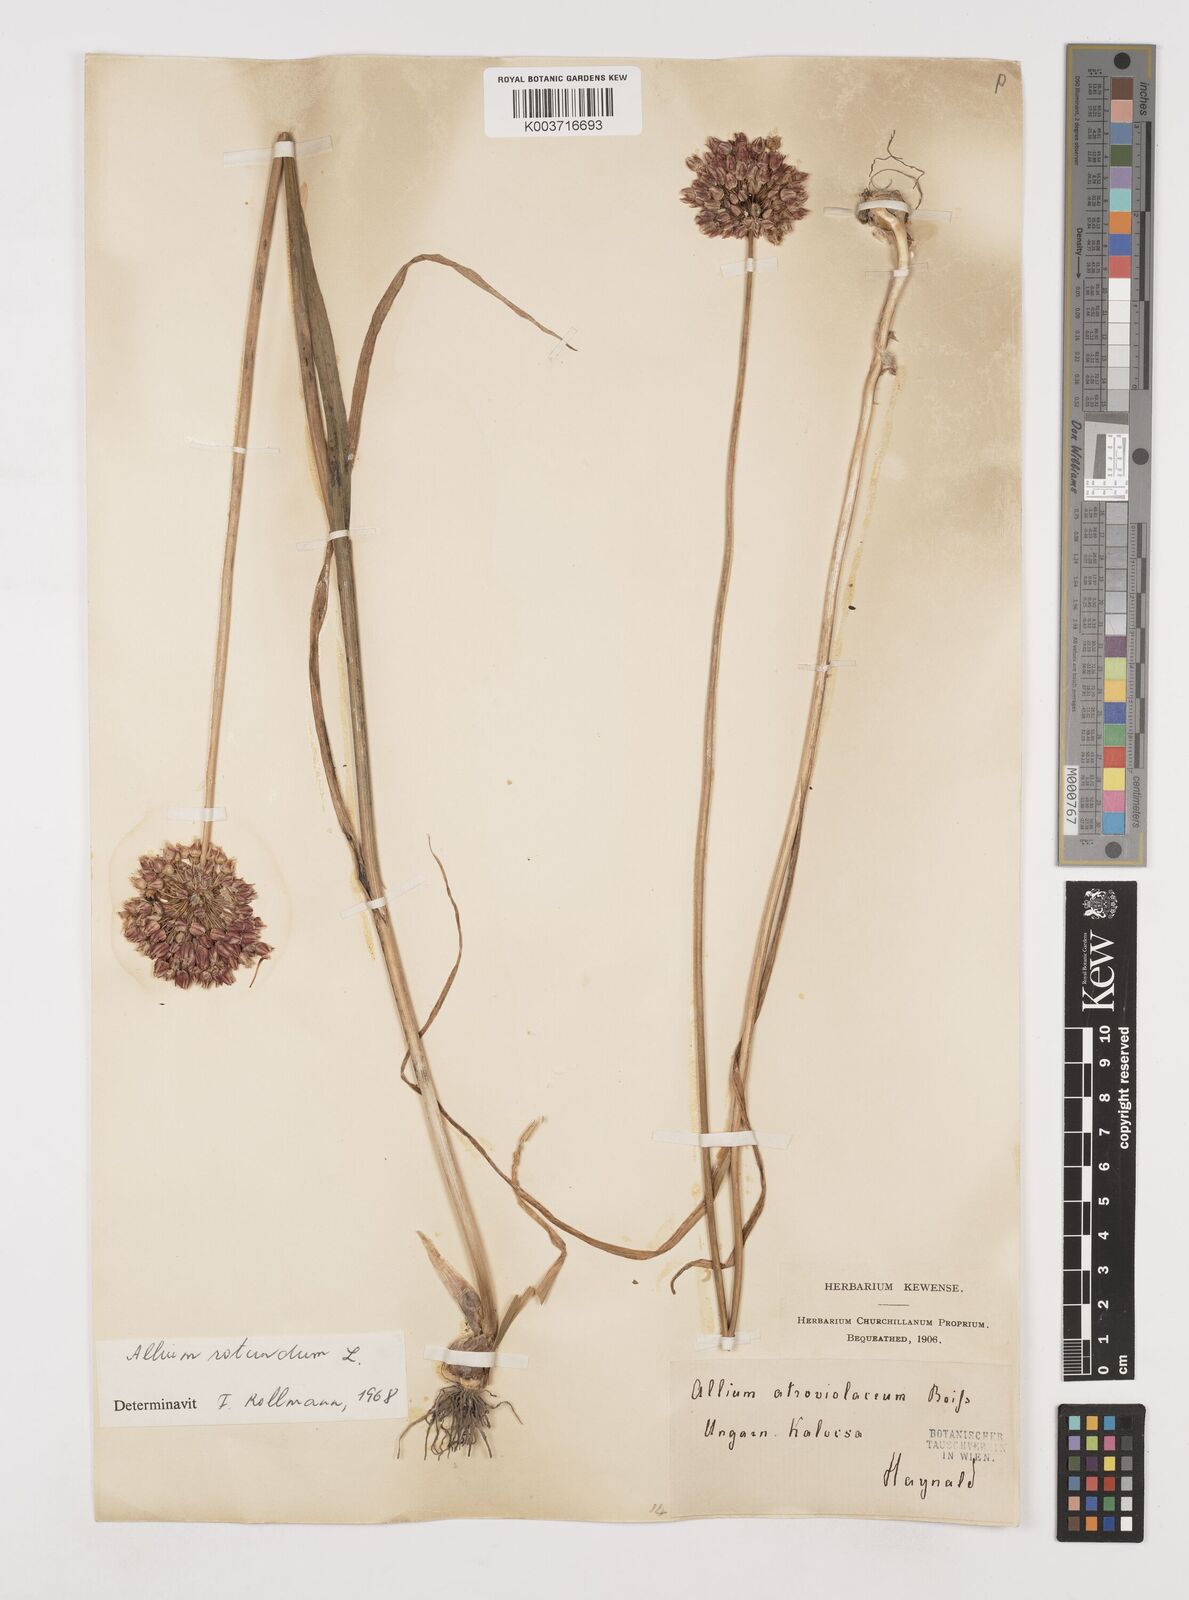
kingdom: Plantae
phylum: Tracheophyta
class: Liliopsida
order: Asparagales
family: Amaryllidaceae
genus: Allium
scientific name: Allium rotundum
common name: Sand leek
